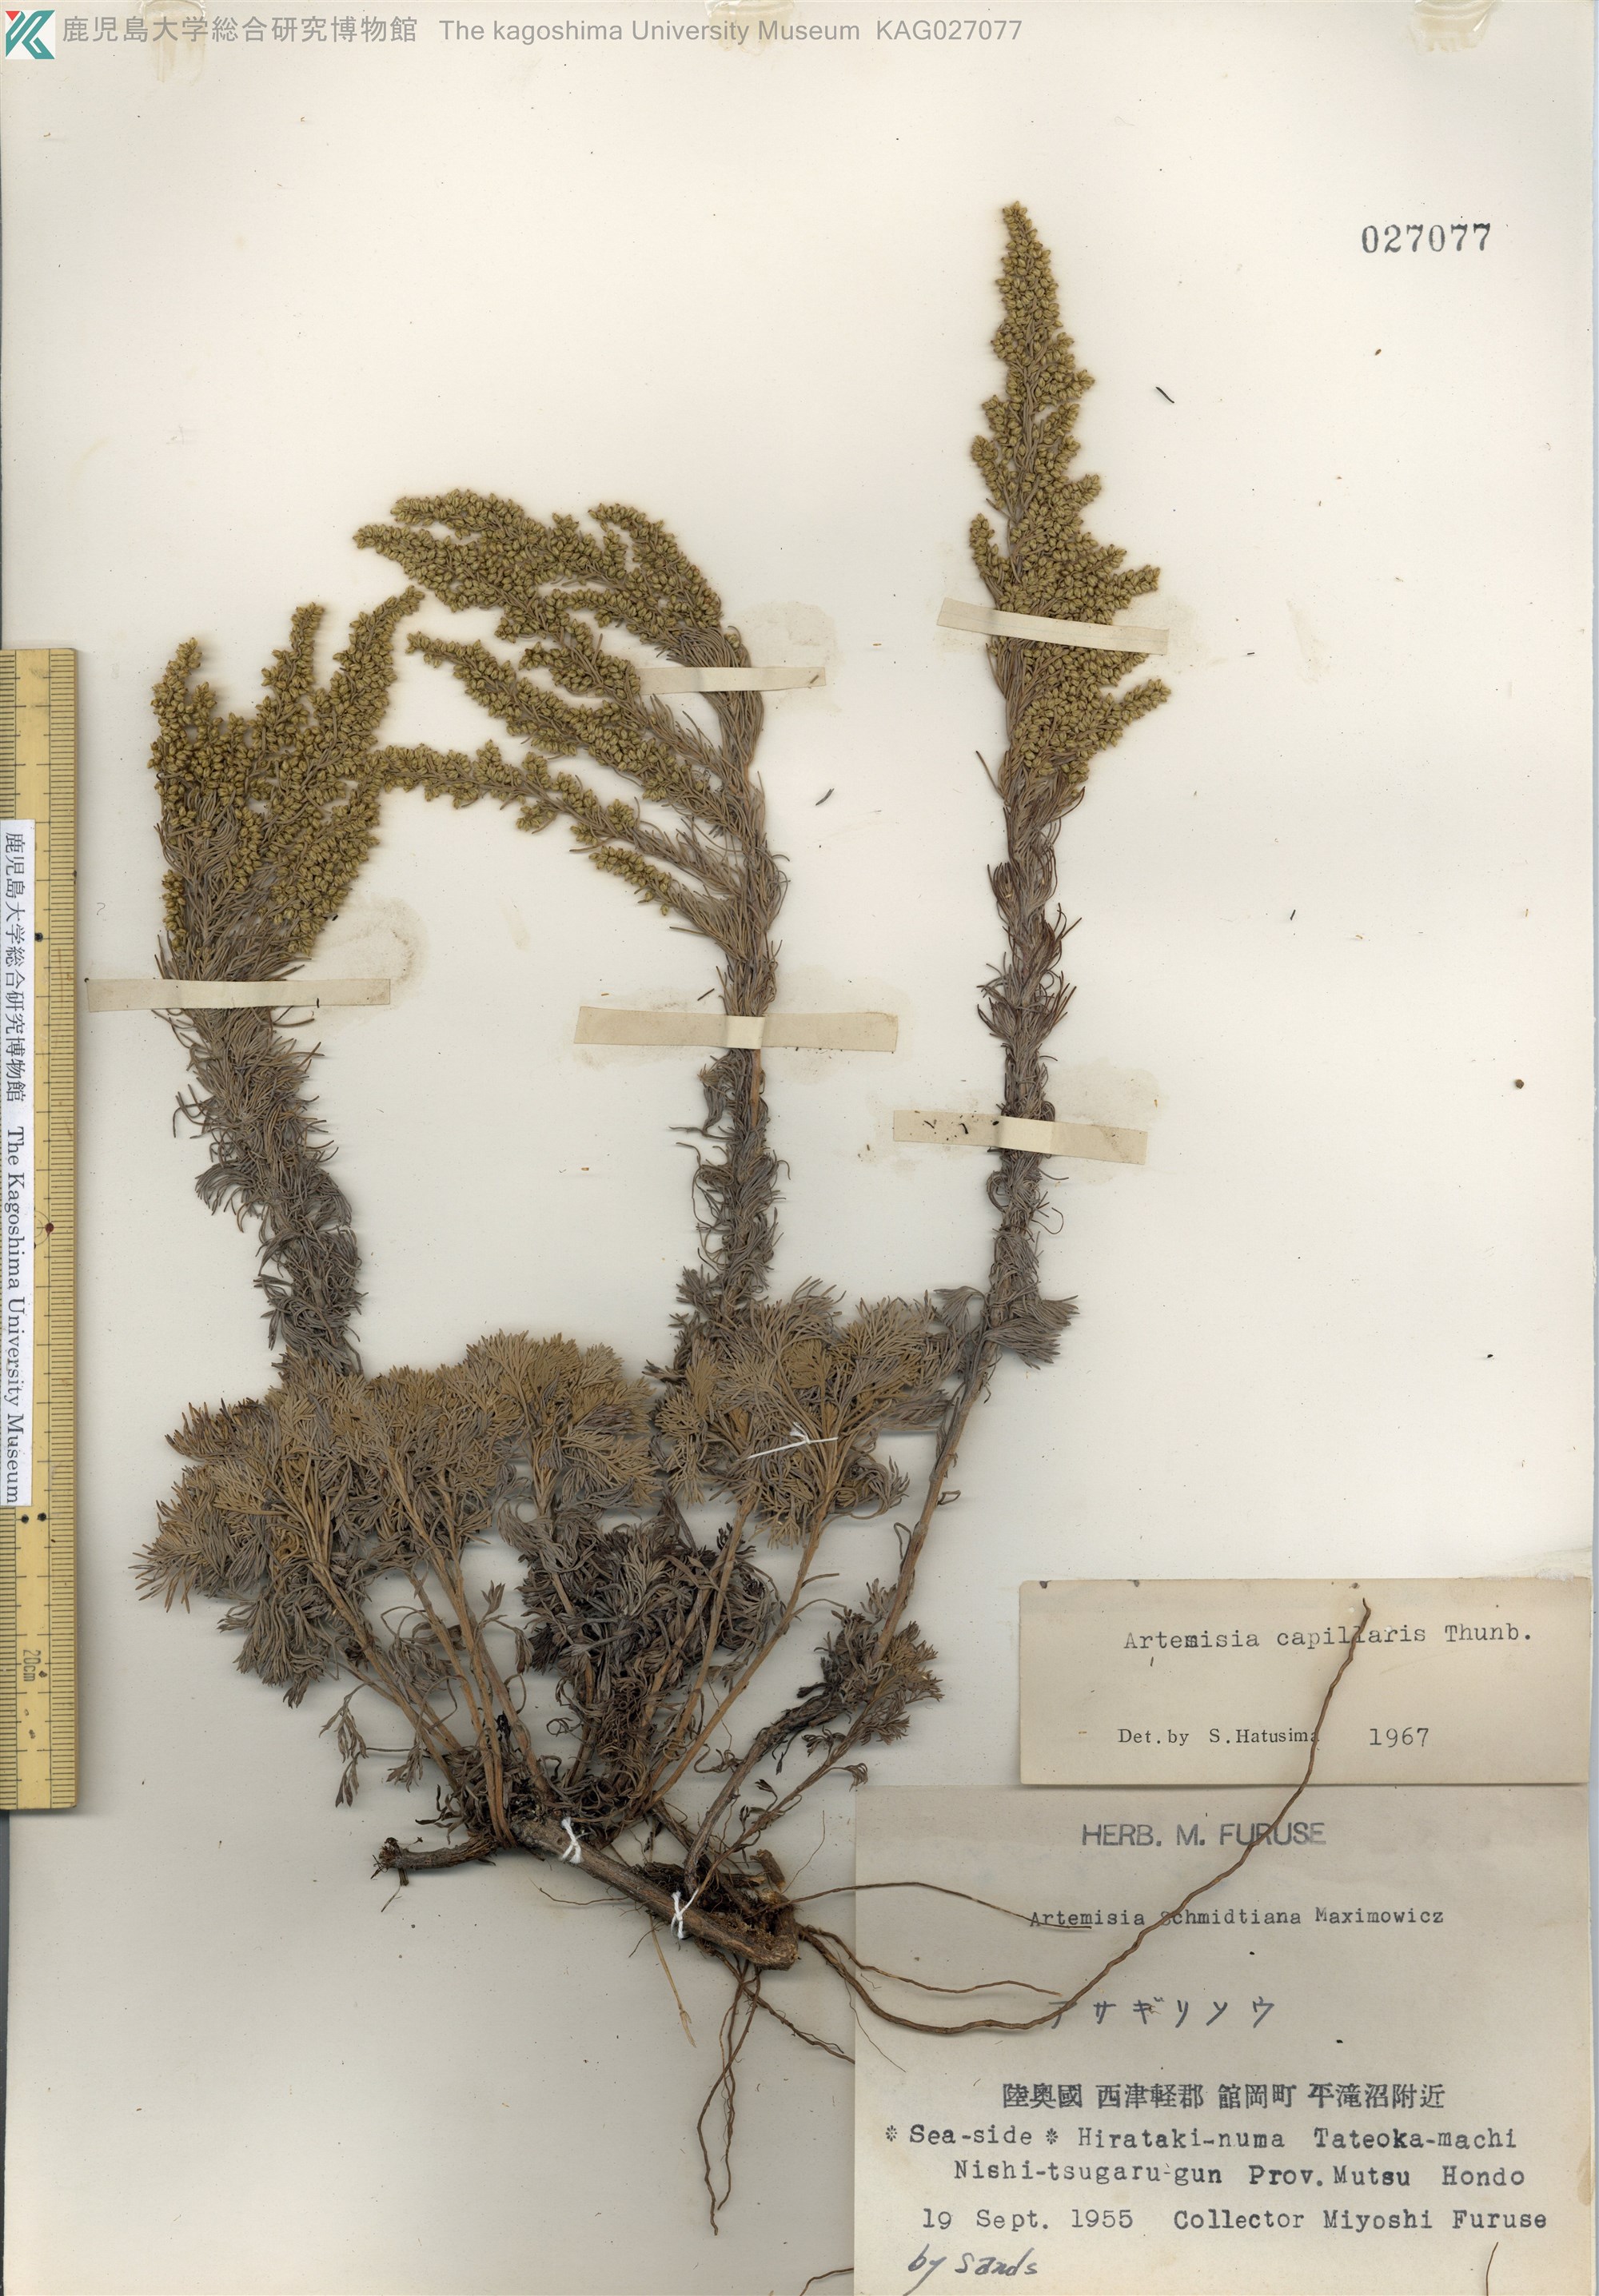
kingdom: Plantae
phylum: Tracheophyta
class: Magnoliopsida
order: Asterales
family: Asteraceae
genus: Artemisia
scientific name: Artemisia capillaris
